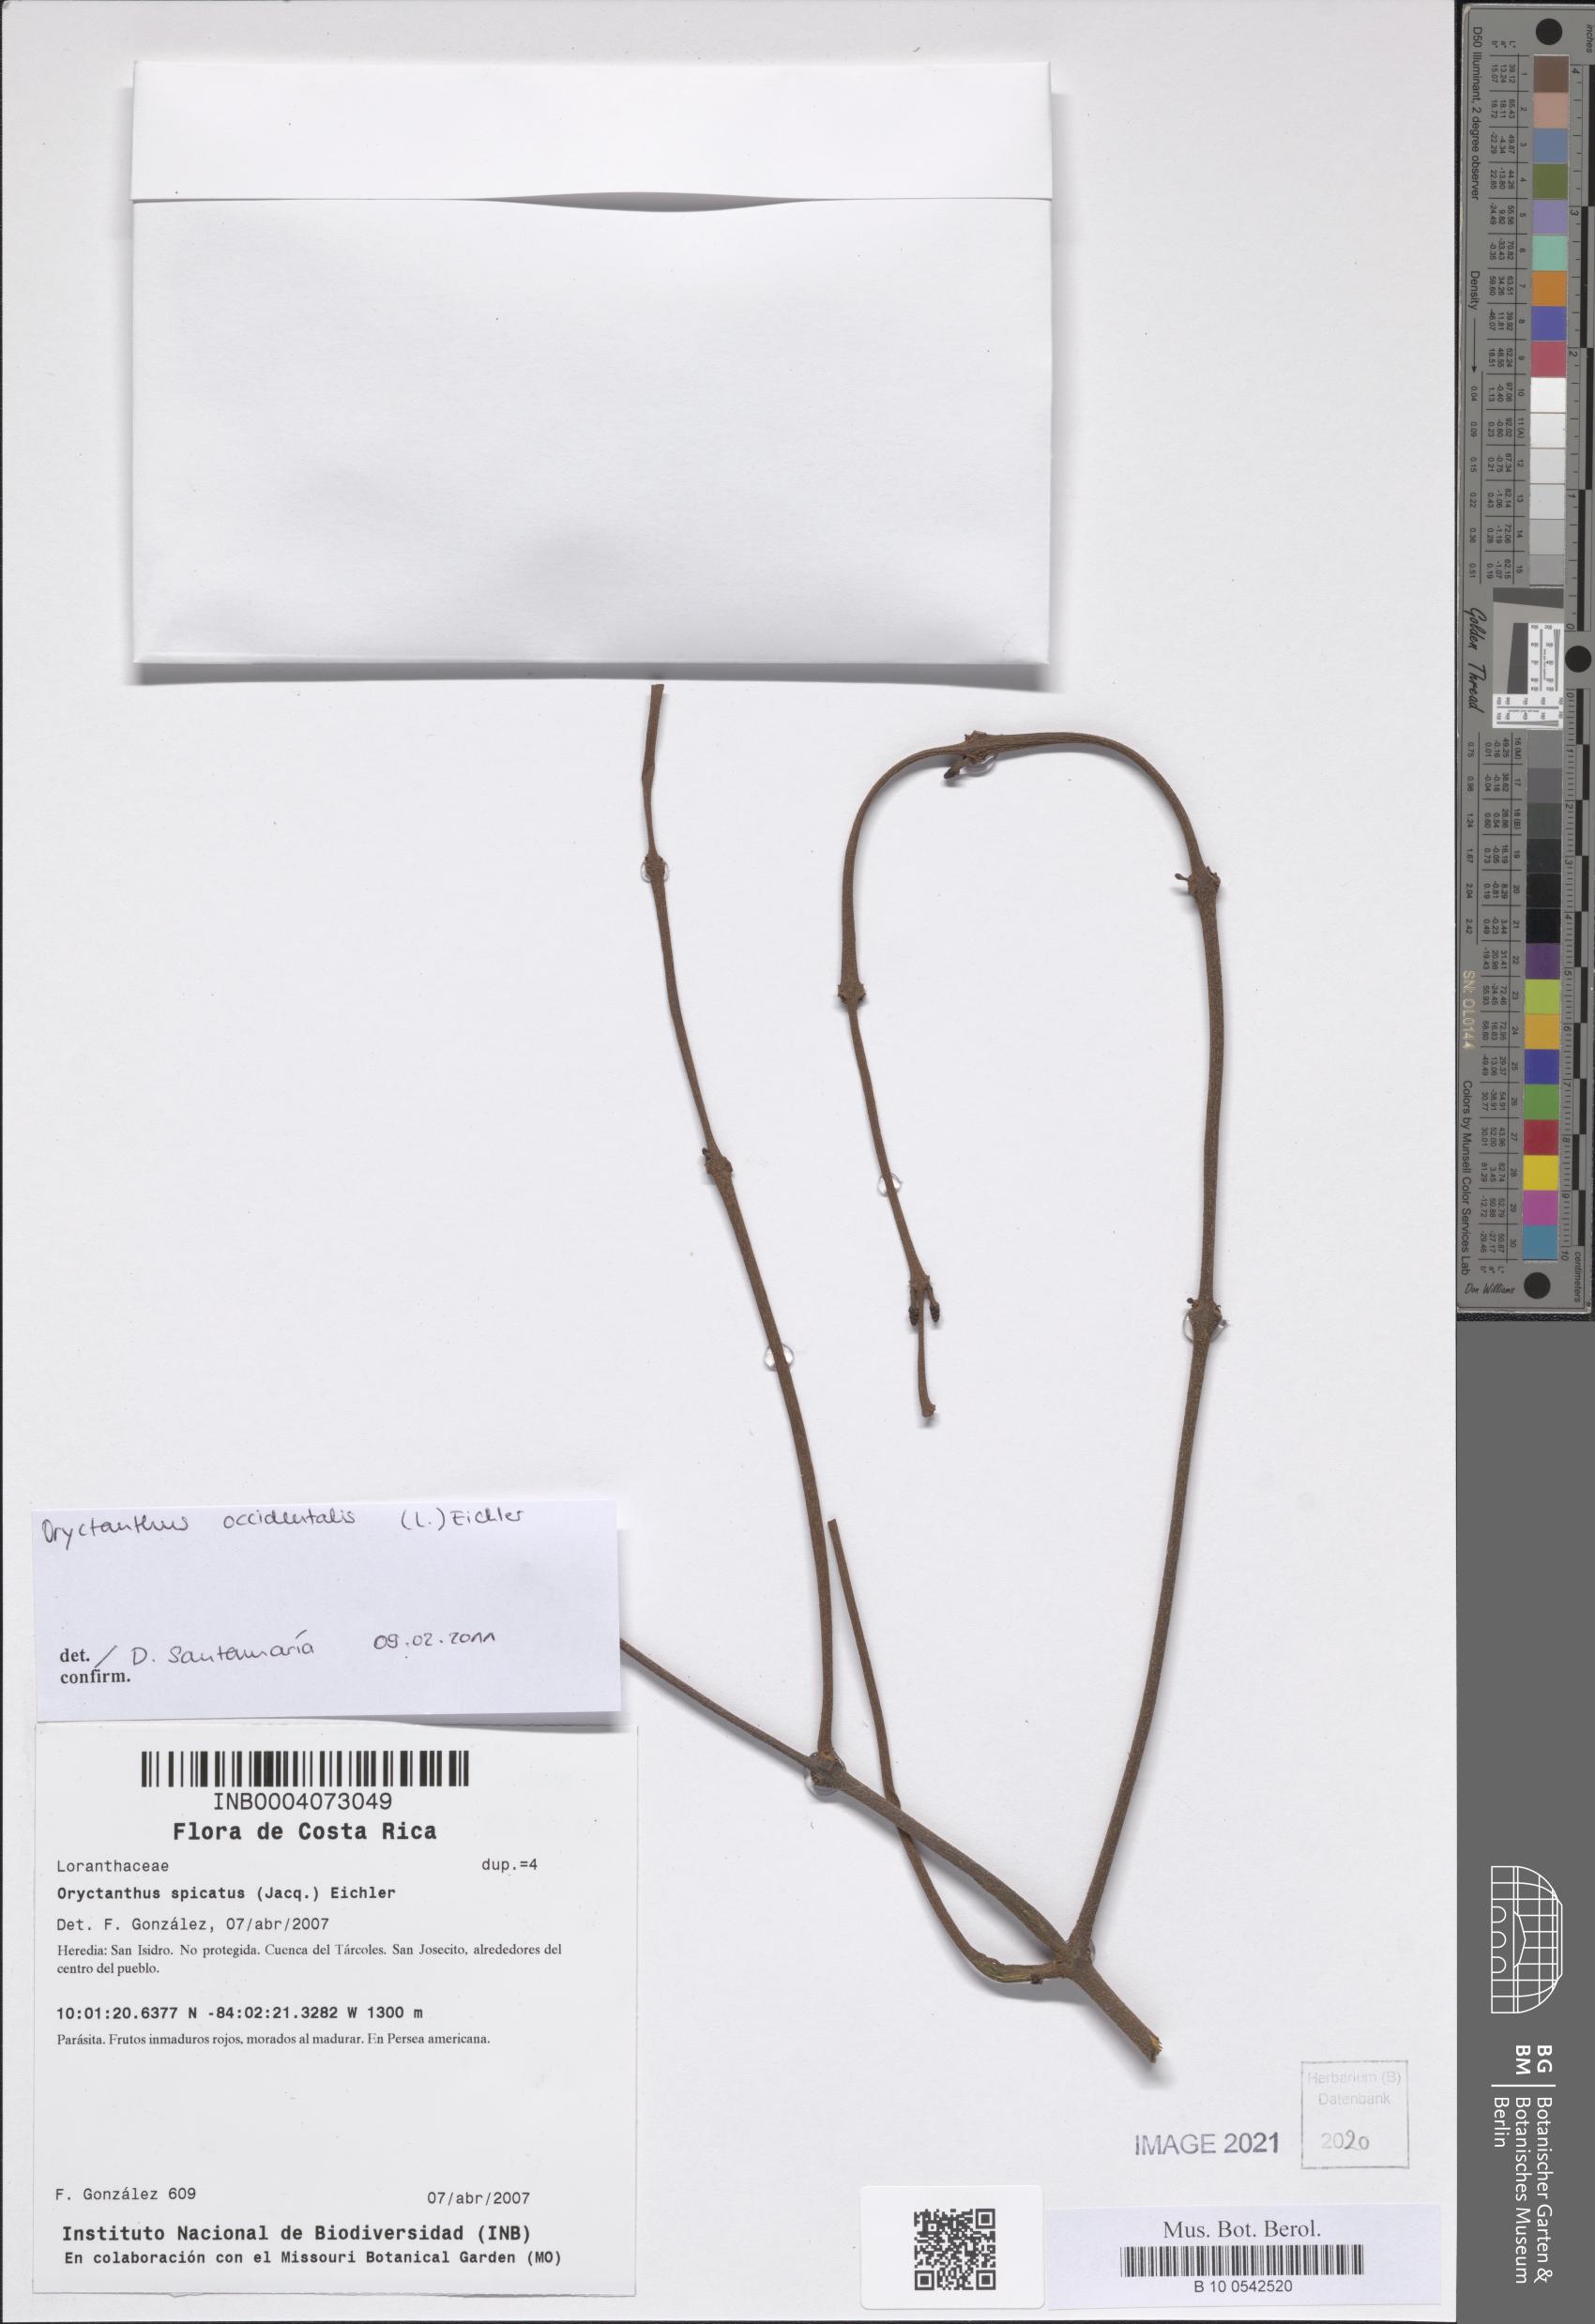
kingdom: Plantae
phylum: Tracheophyta
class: Magnoliopsida
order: Santalales
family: Loranthaceae
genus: Oryctanthus
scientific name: Oryctanthus occidentalis
